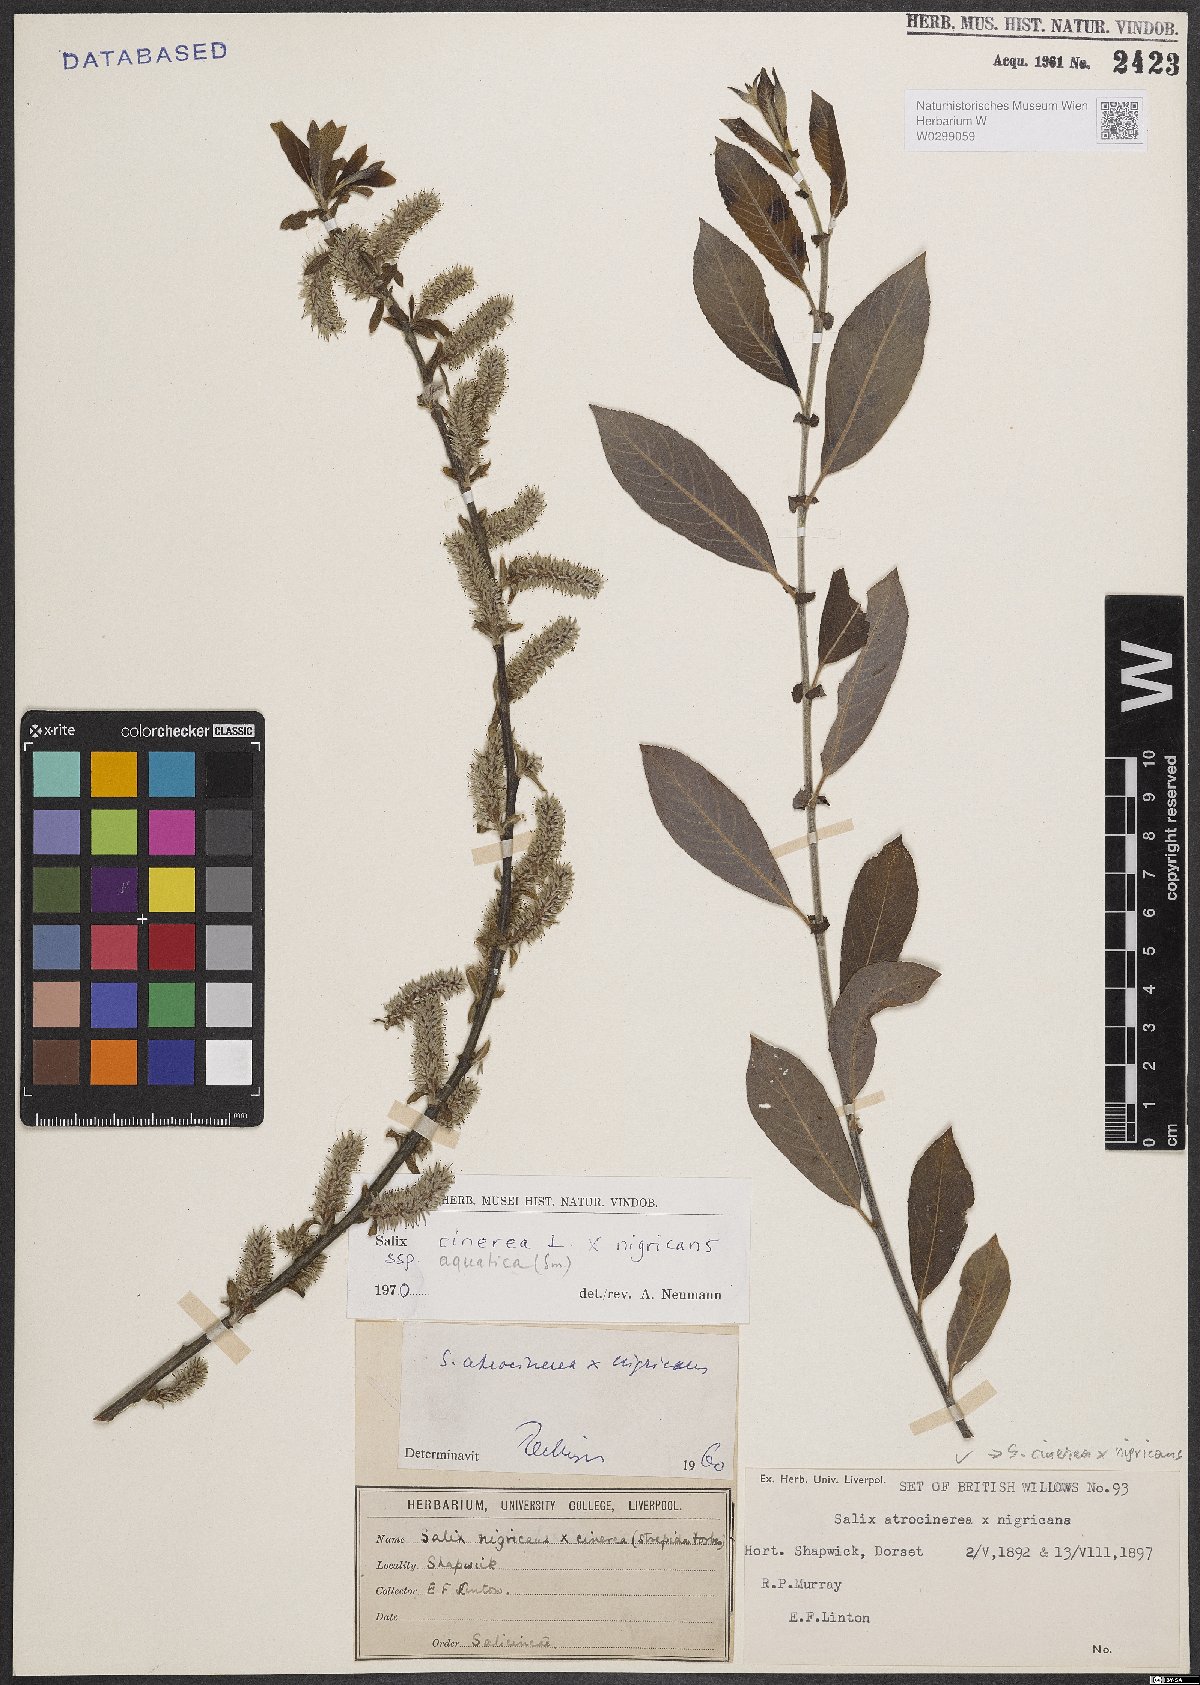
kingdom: Plantae
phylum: Tracheophyta
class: Magnoliopsida
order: Malpighiales
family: Salicaceae
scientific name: Salicaceae
